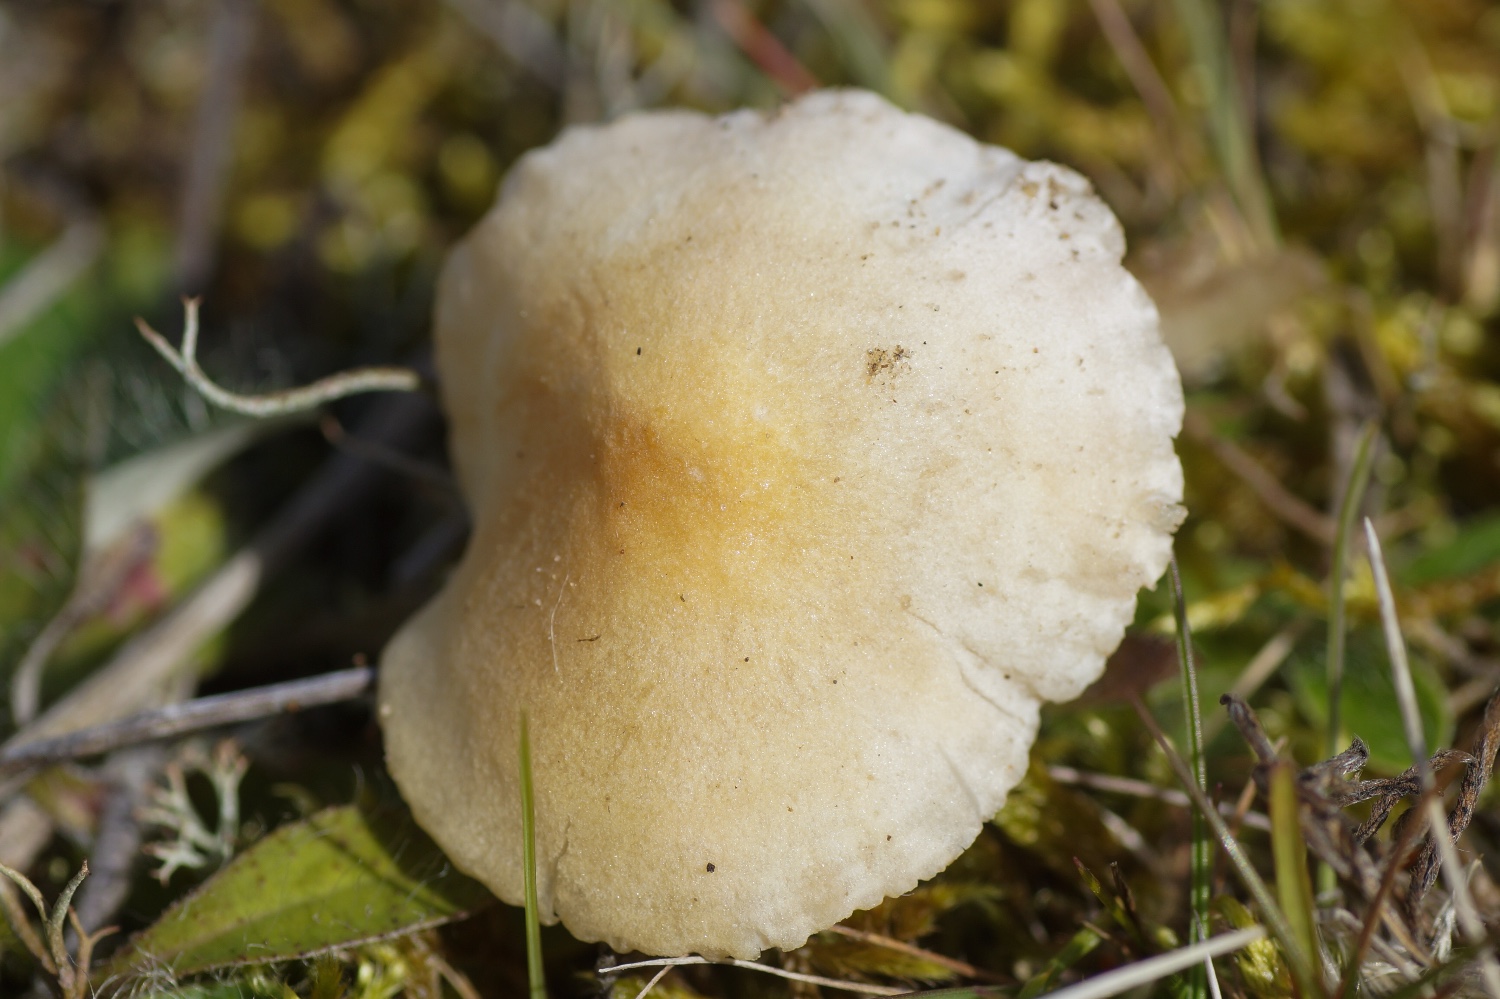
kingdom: Fungi
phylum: Basidiomycota
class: Agaricomycetes
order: Agaricales
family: Entolomataceae
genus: Entoloma
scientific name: Entoloma sericellum
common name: silkehvid rødblad
